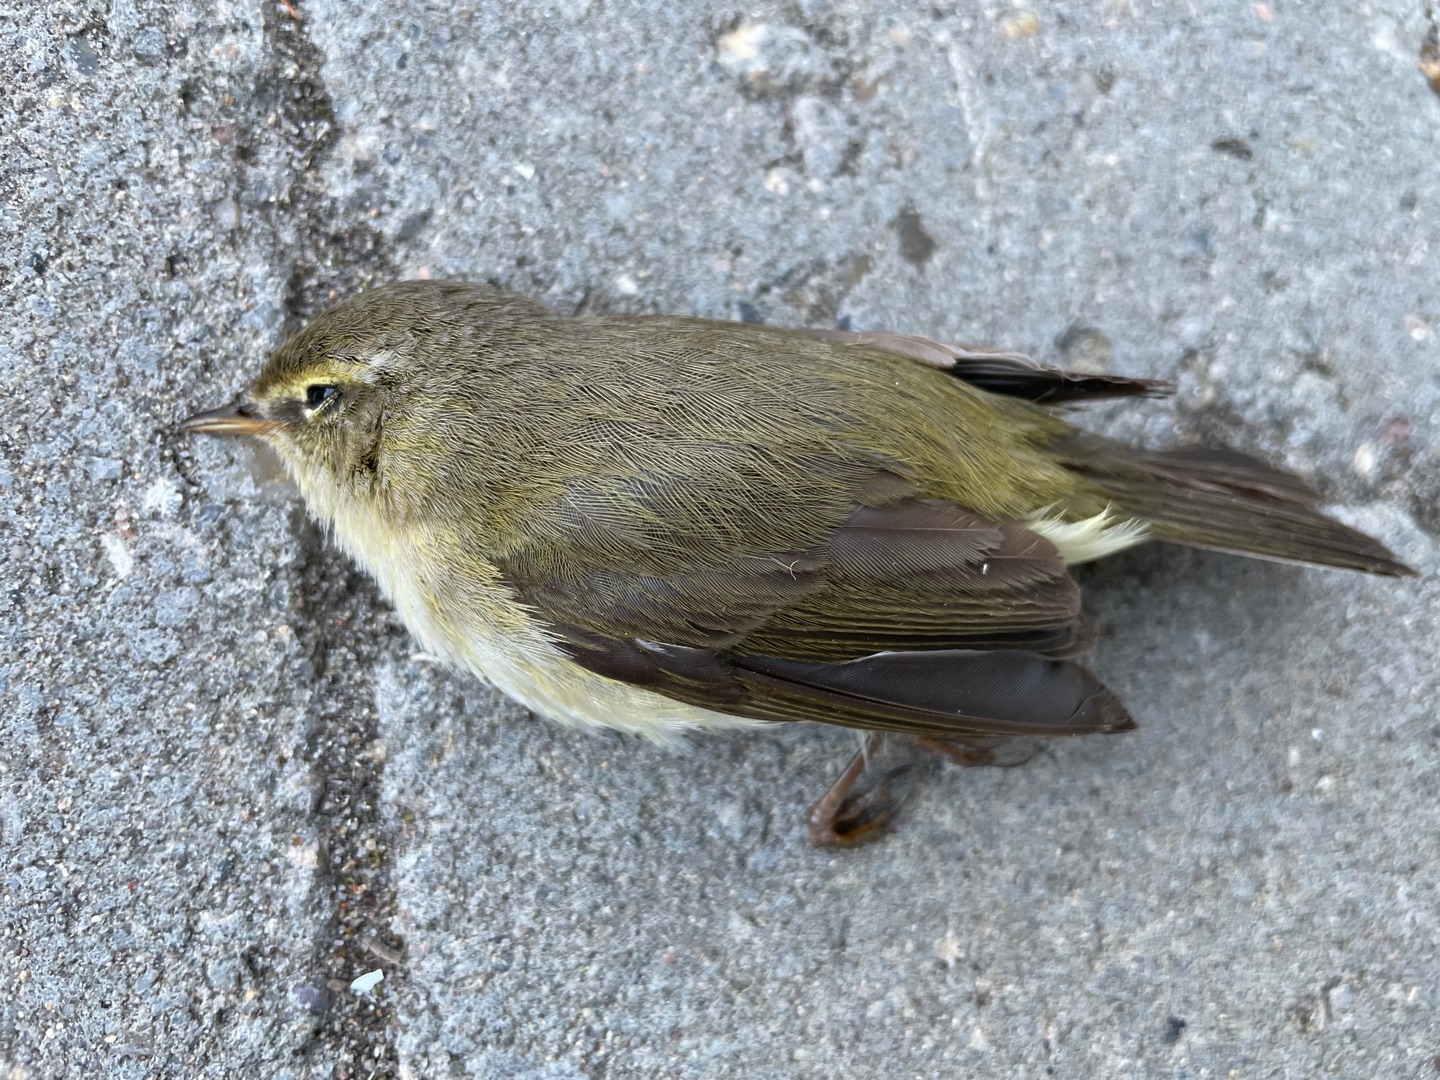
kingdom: Animalia
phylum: Chordata
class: Aves
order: Passeriformes
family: Phylloscopidae
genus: Phylloscopus
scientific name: Phylloscopus trochilus
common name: Løvsanger
